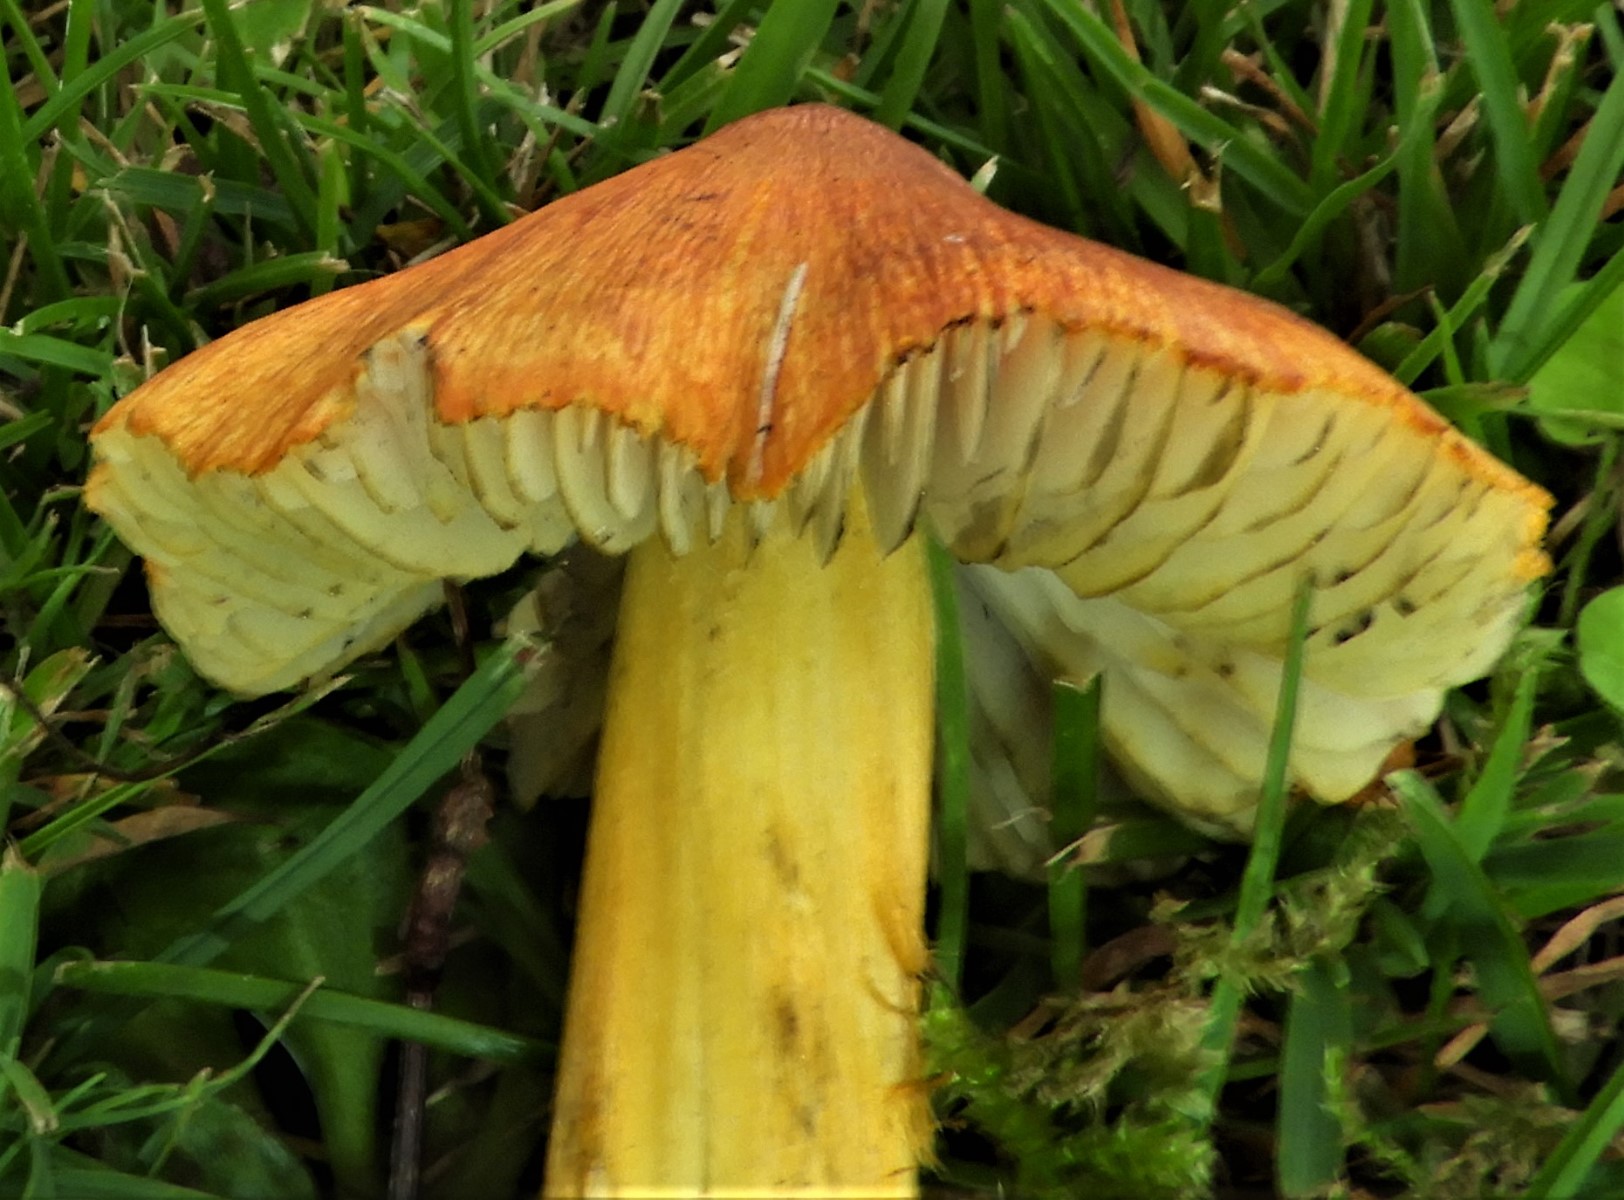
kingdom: Fungi
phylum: Basidiomycota
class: Agaricomycetes
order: Agaricales
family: Hygrophoraceae
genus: Hygrocybe
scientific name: Hygrocybe conica
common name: kegle-vokshat
